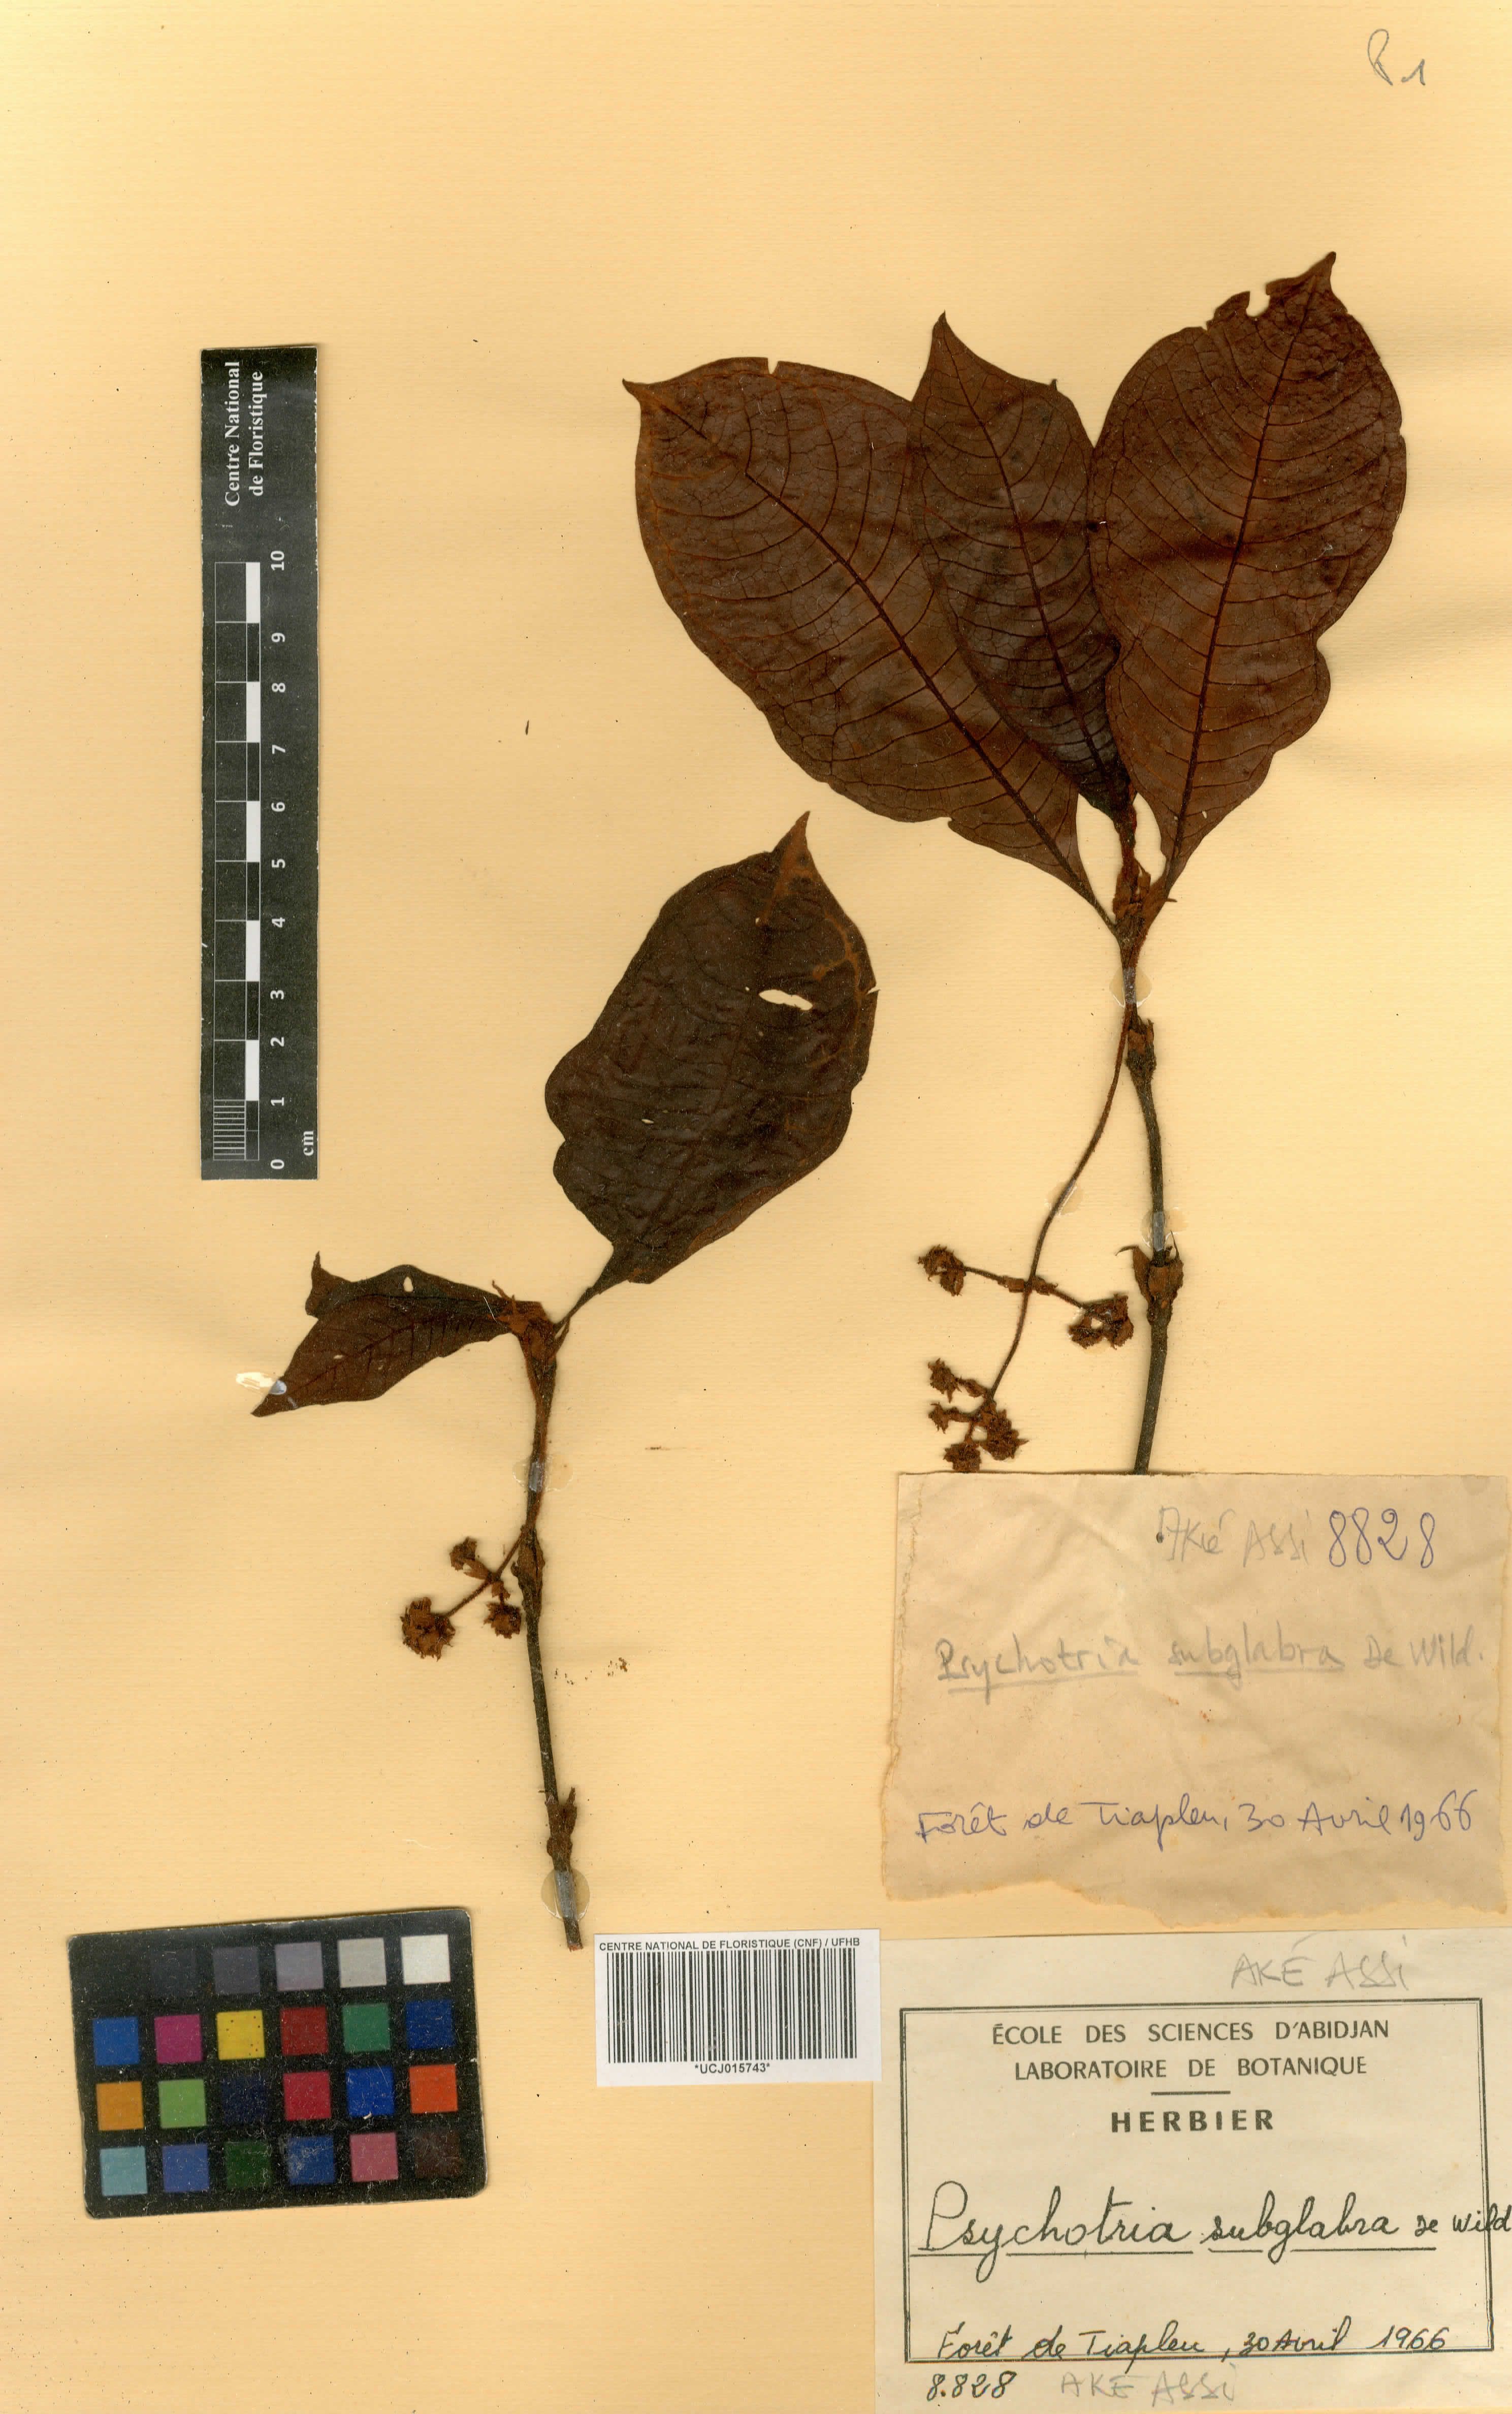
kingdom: Plantae
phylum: Tracheophyta
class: Magnoliopsida
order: Gentianales
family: Rubiaceae
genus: Psychotria
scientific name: Psychotria subglabra
